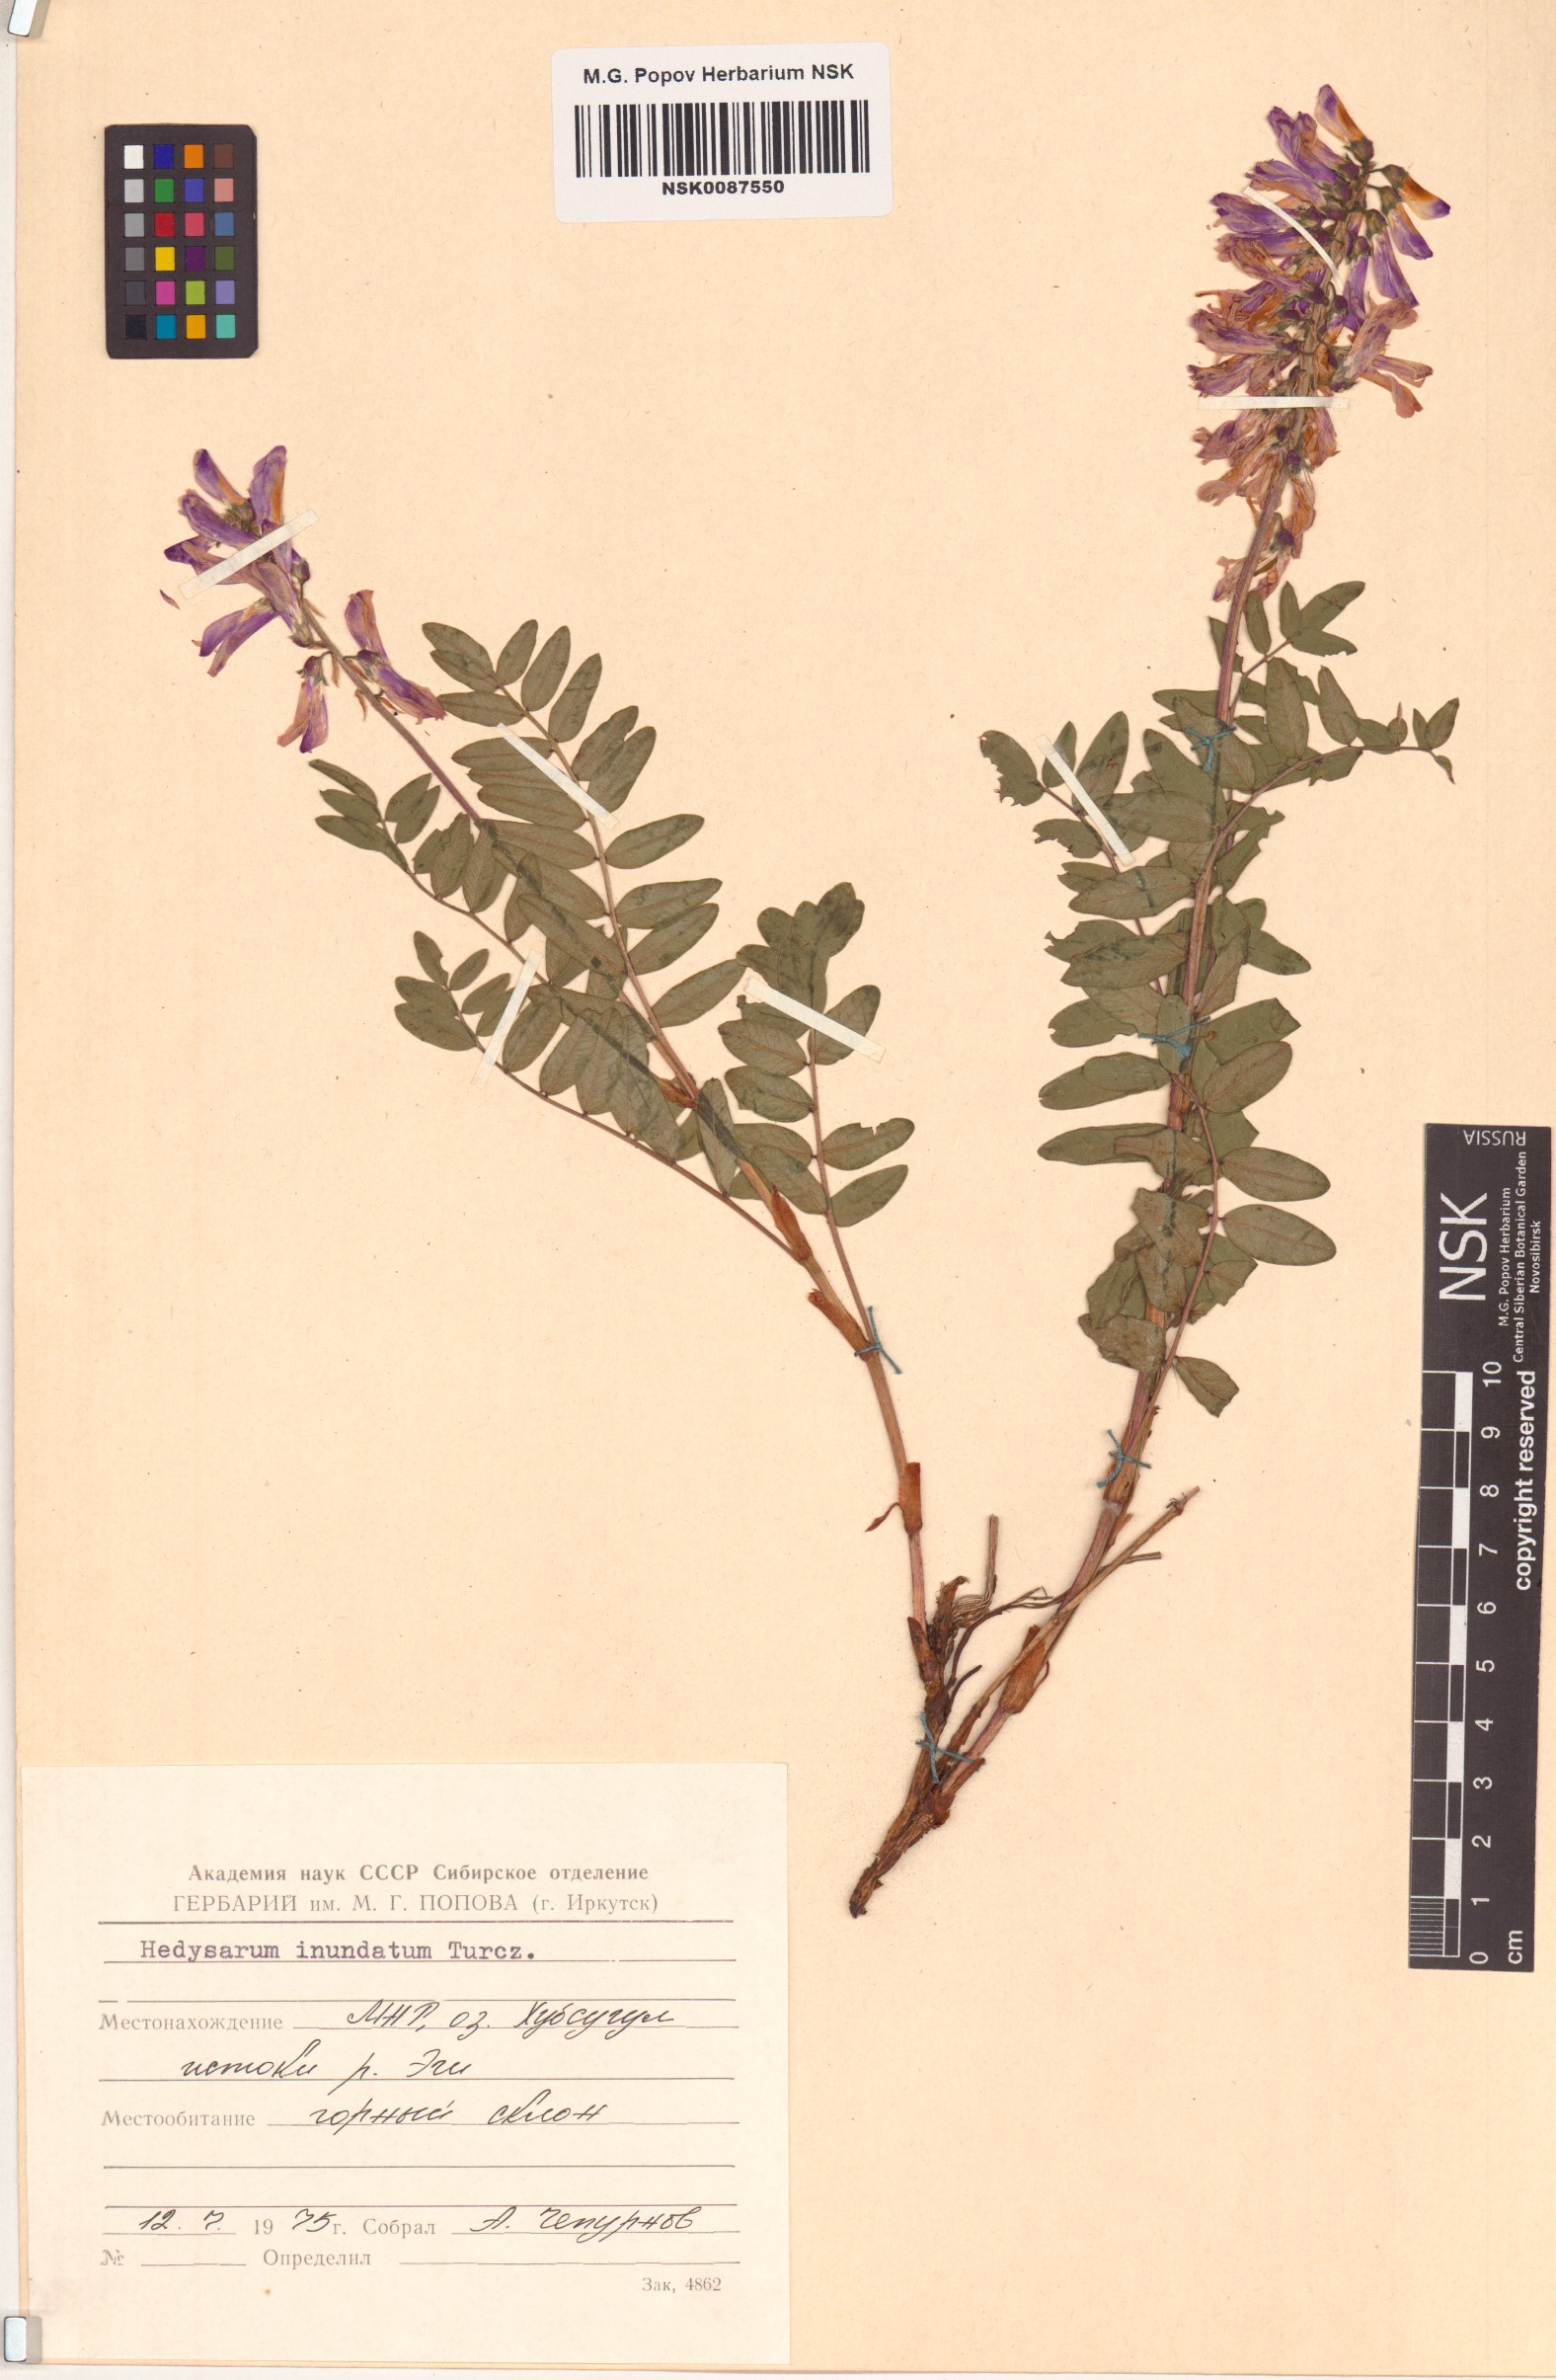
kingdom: Plantae
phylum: Tracheophyta
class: Magnoliopsida
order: Fabales
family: Fabaceae
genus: Hedysarum
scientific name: Hedysarum inundatum
